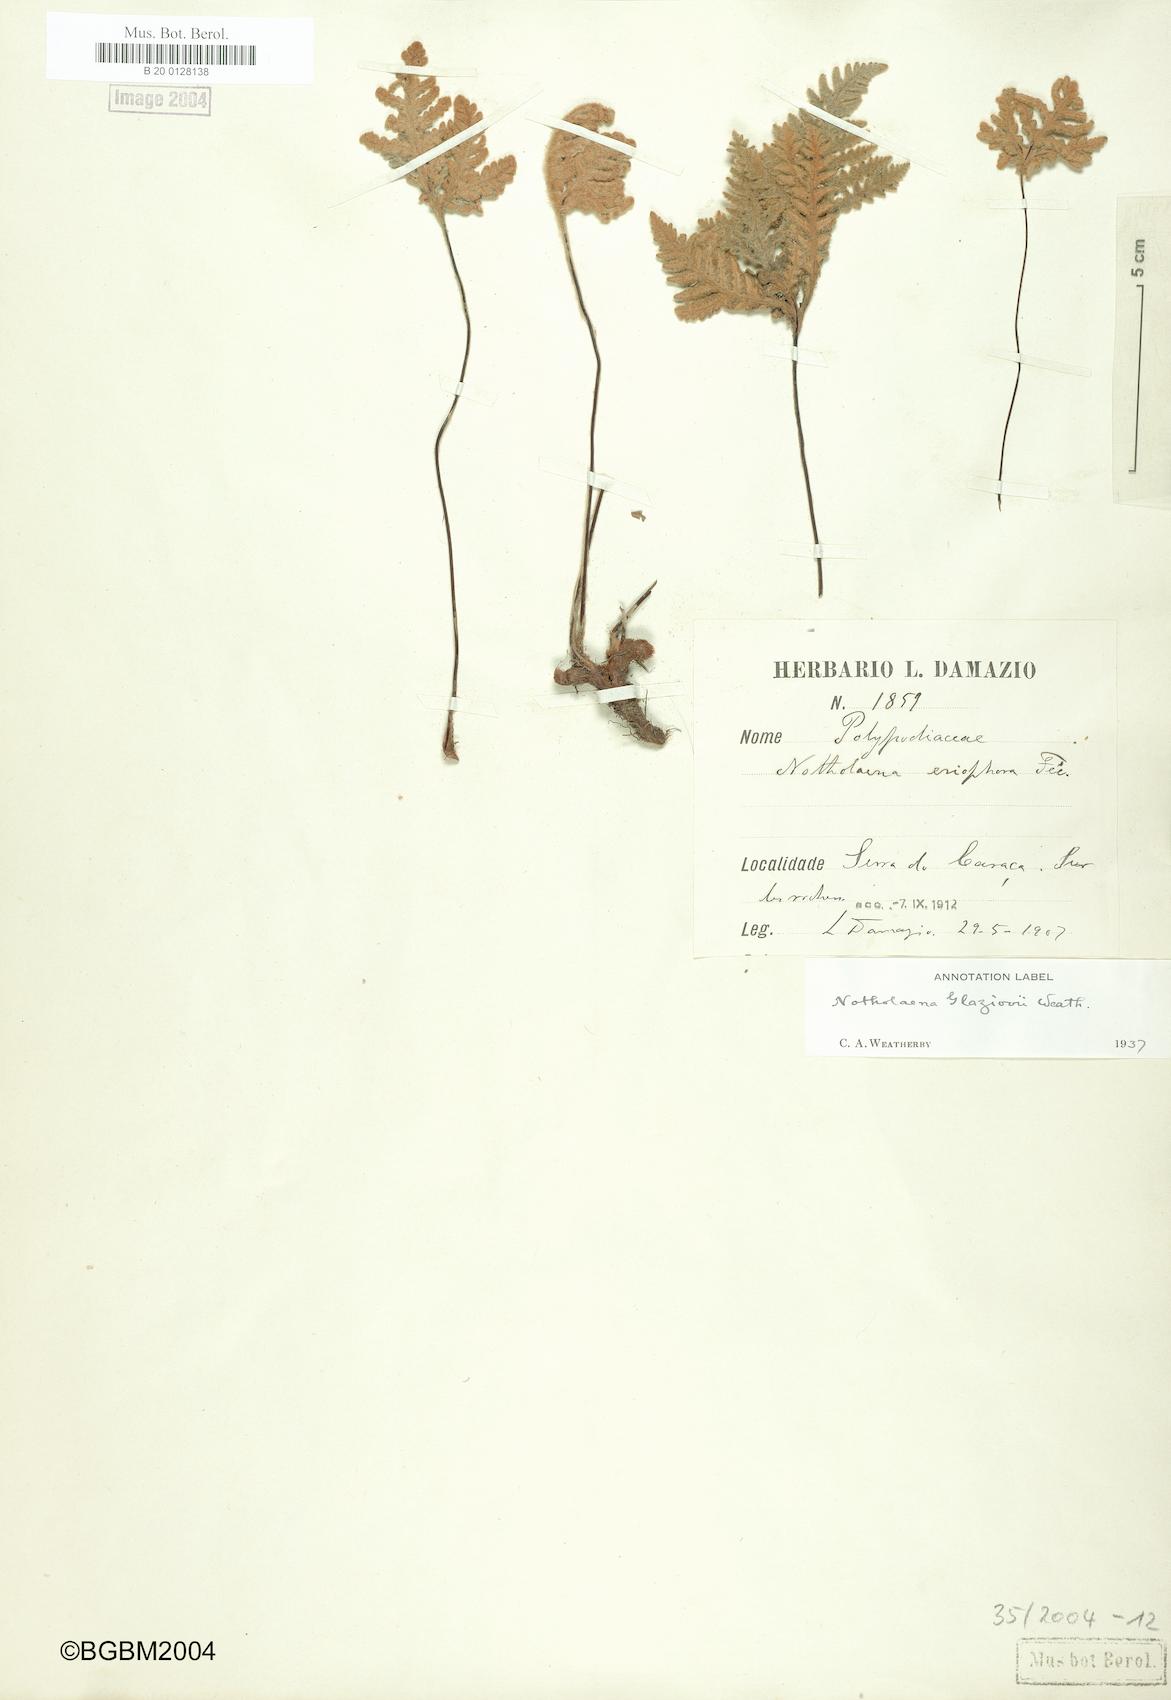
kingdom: Plantae
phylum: Tracheophyta
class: Polypodiopsida
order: Polypodiales
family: Pteridaceae
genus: Mineirella
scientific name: Mineirella eriophora
